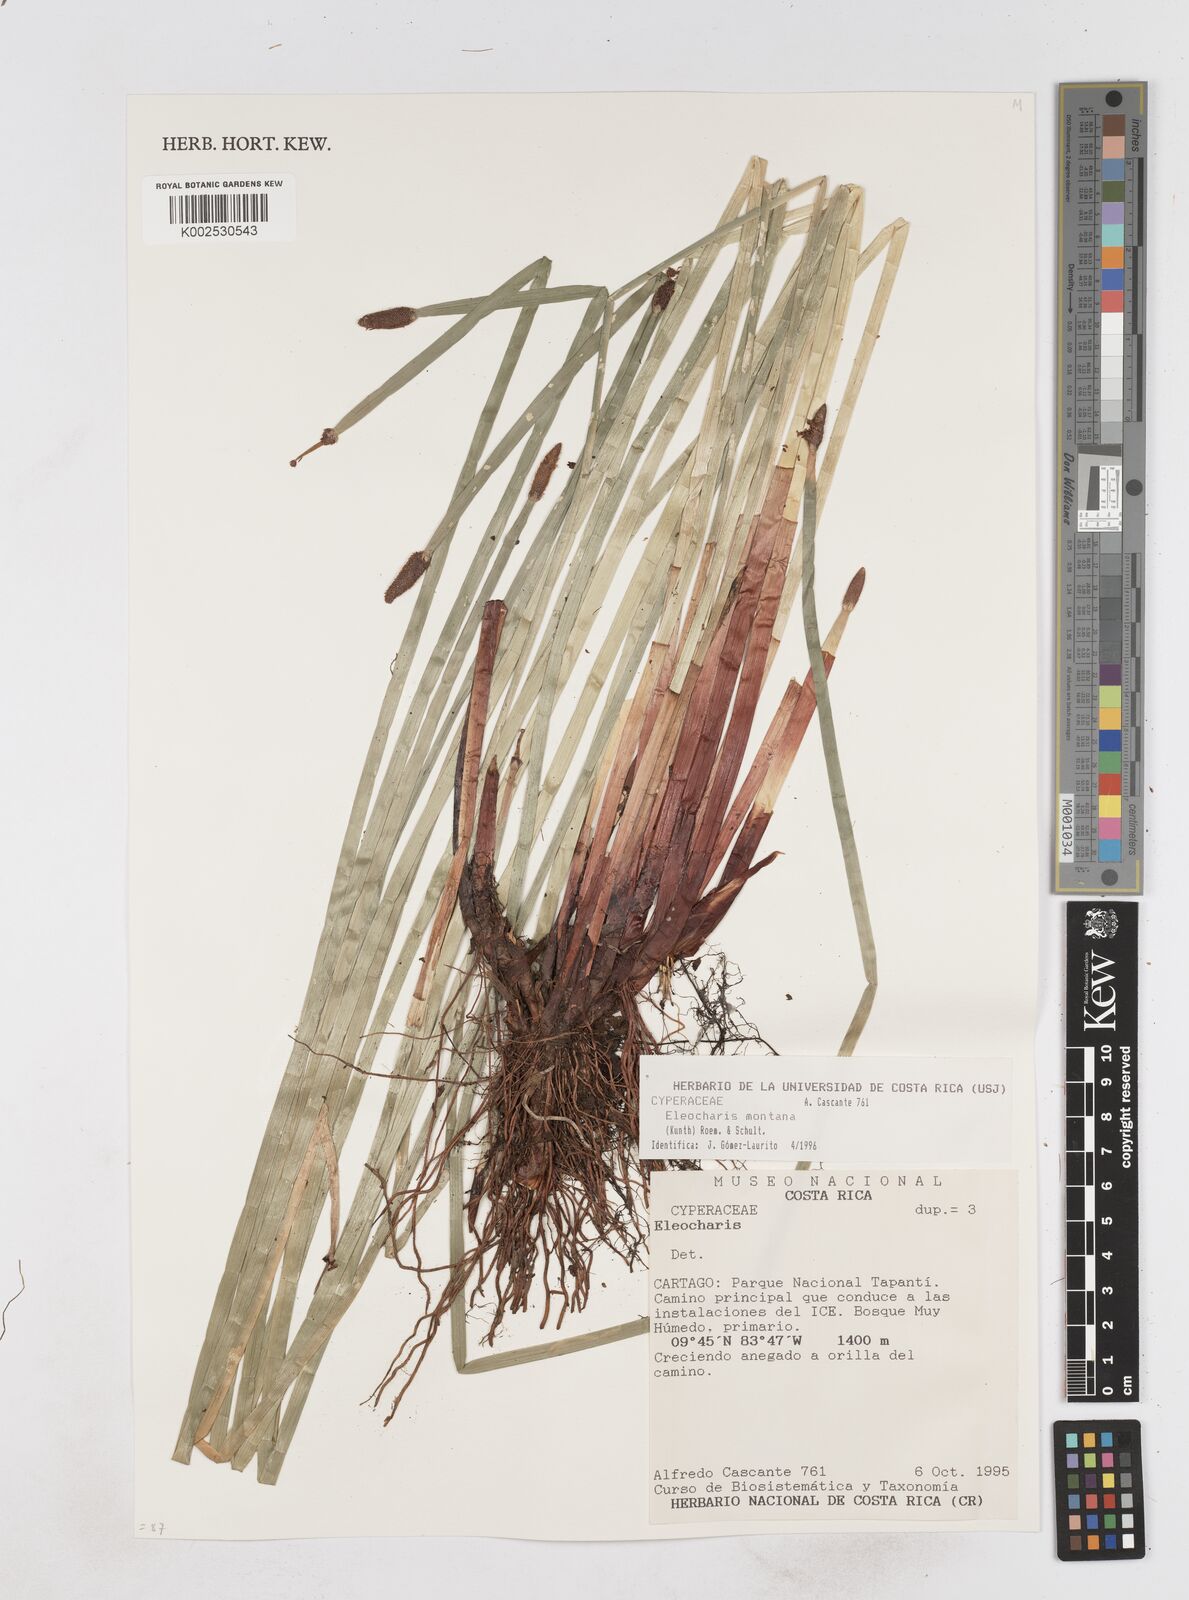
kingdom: Plantae
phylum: Tracheophyta
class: Liliopsida
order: Poales
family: Cyperaceae
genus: Eleocharis
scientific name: Eleocharis montana
